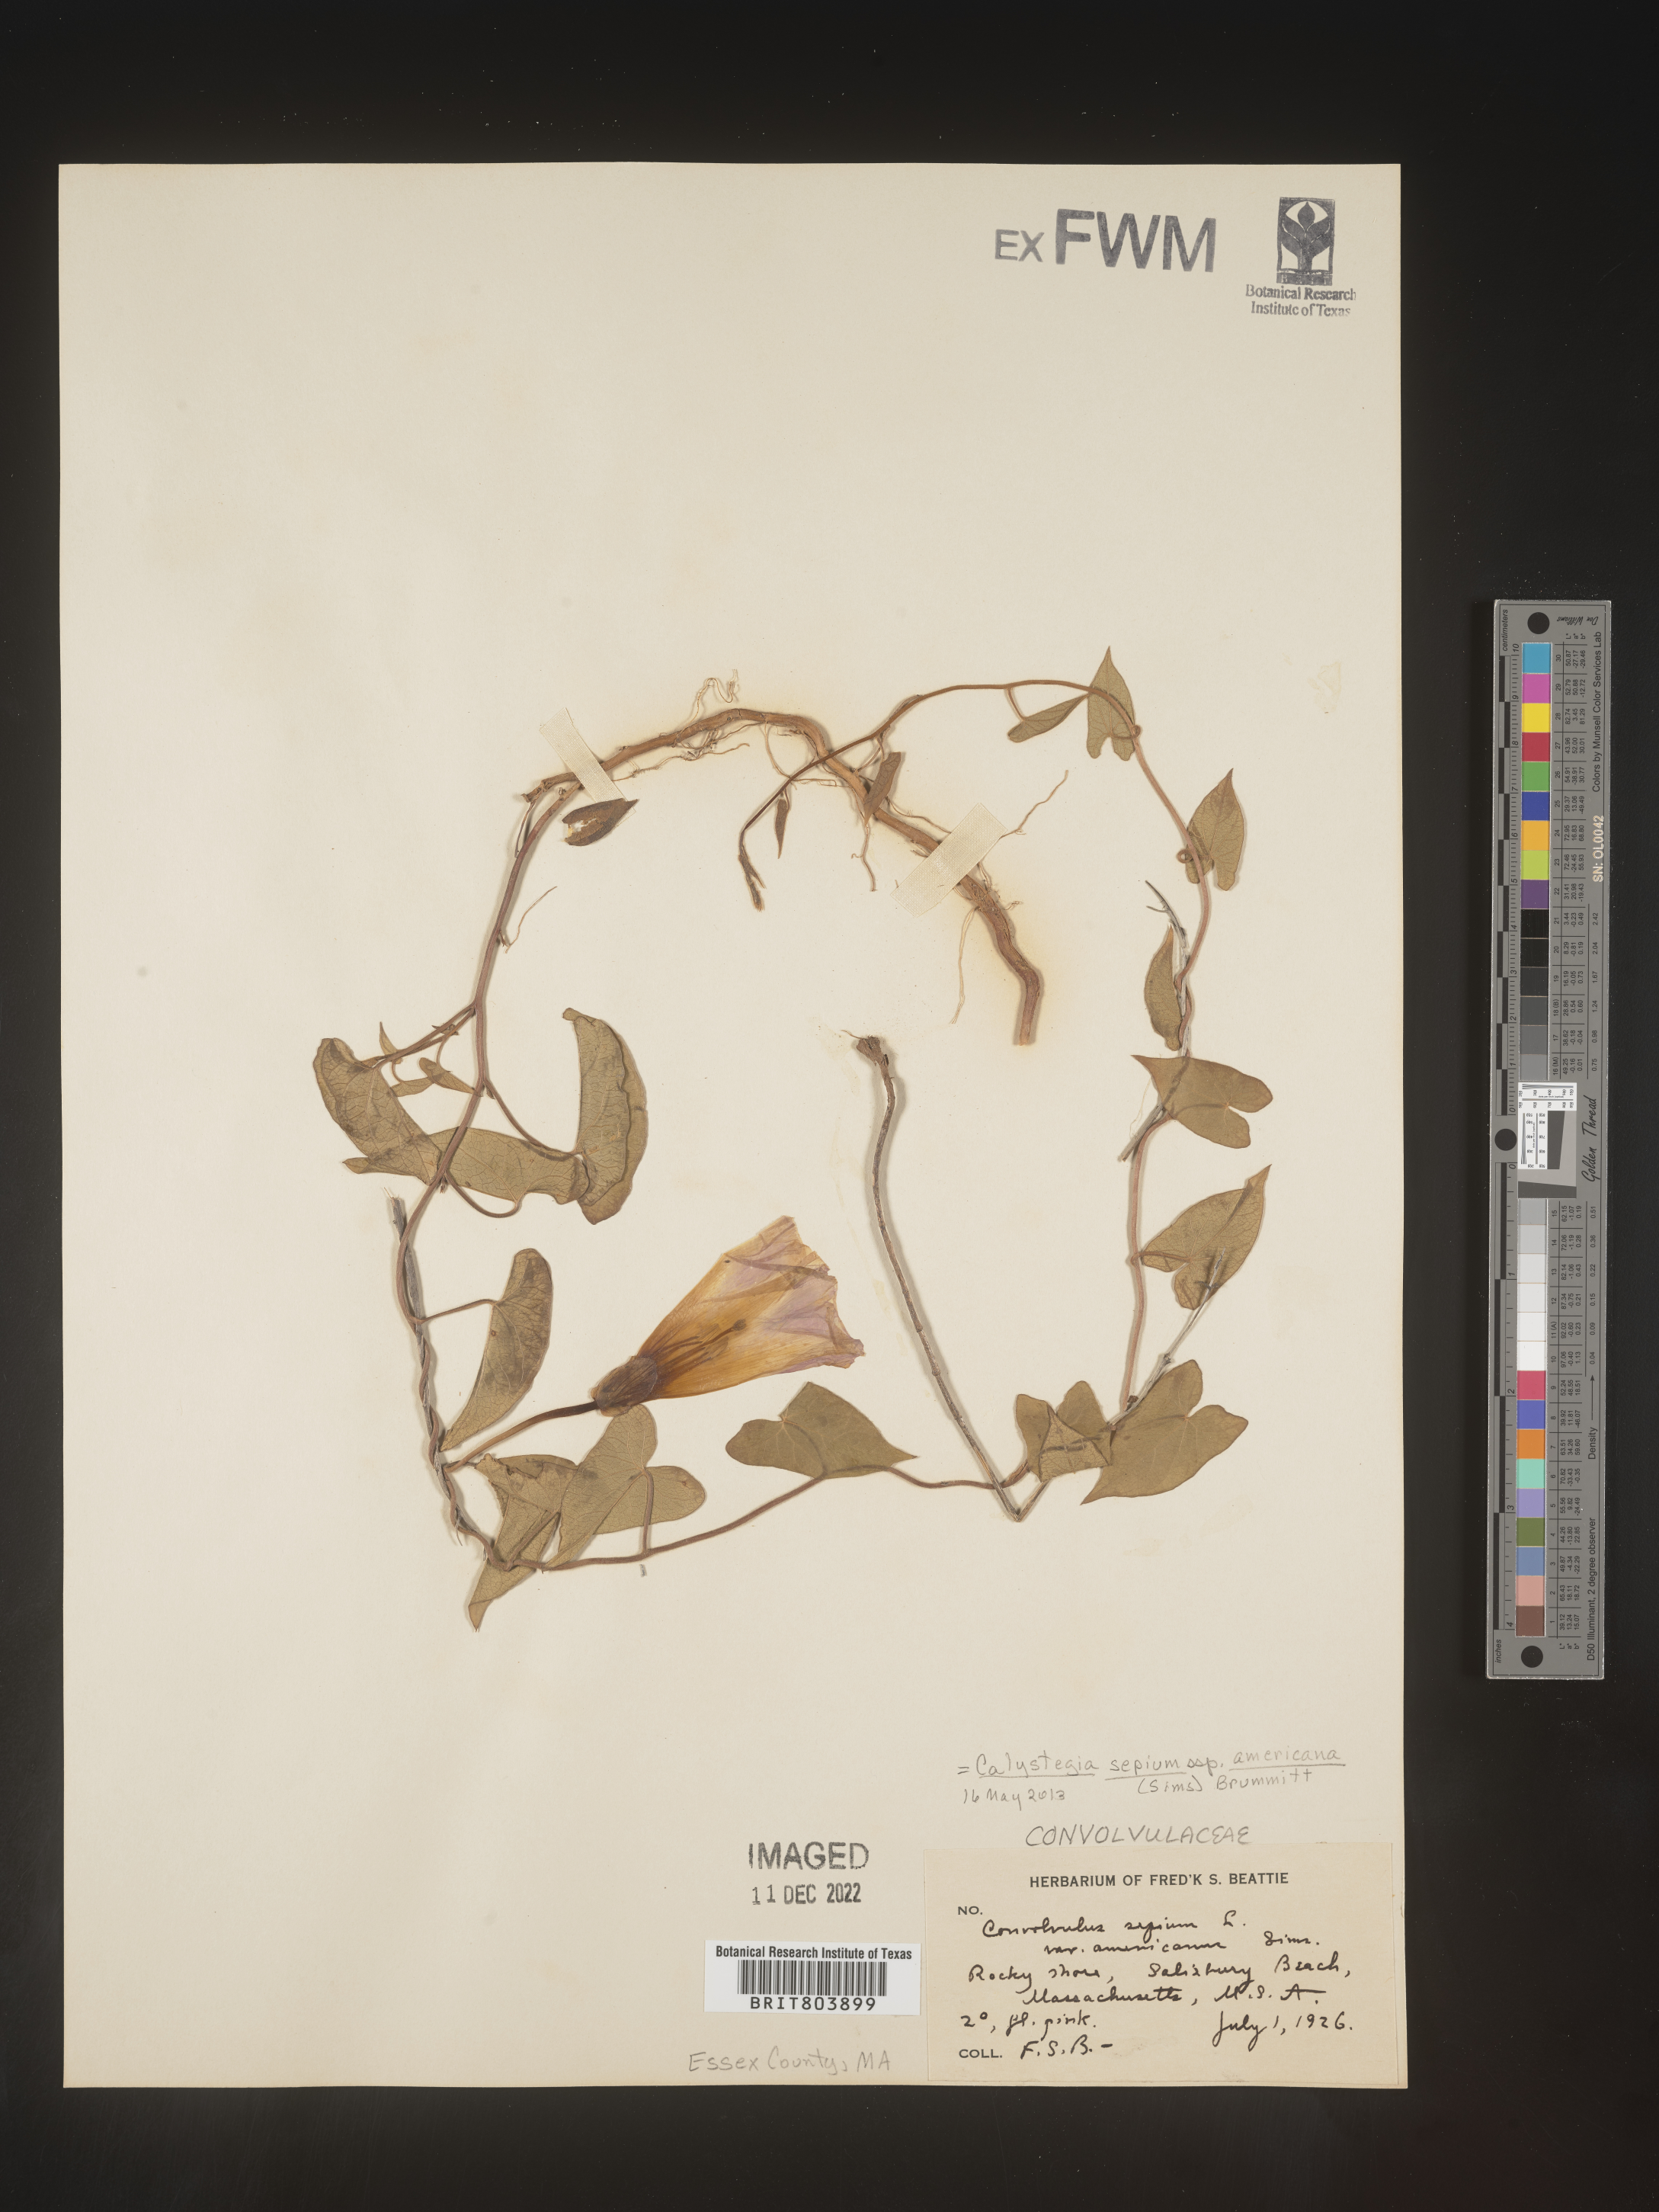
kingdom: Plantae
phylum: Tracheophyta
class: Magnoliopsida
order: Solanales
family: Convolvulaceae
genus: Calystegia
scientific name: Calystegia sepium
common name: Hedge bindweed
